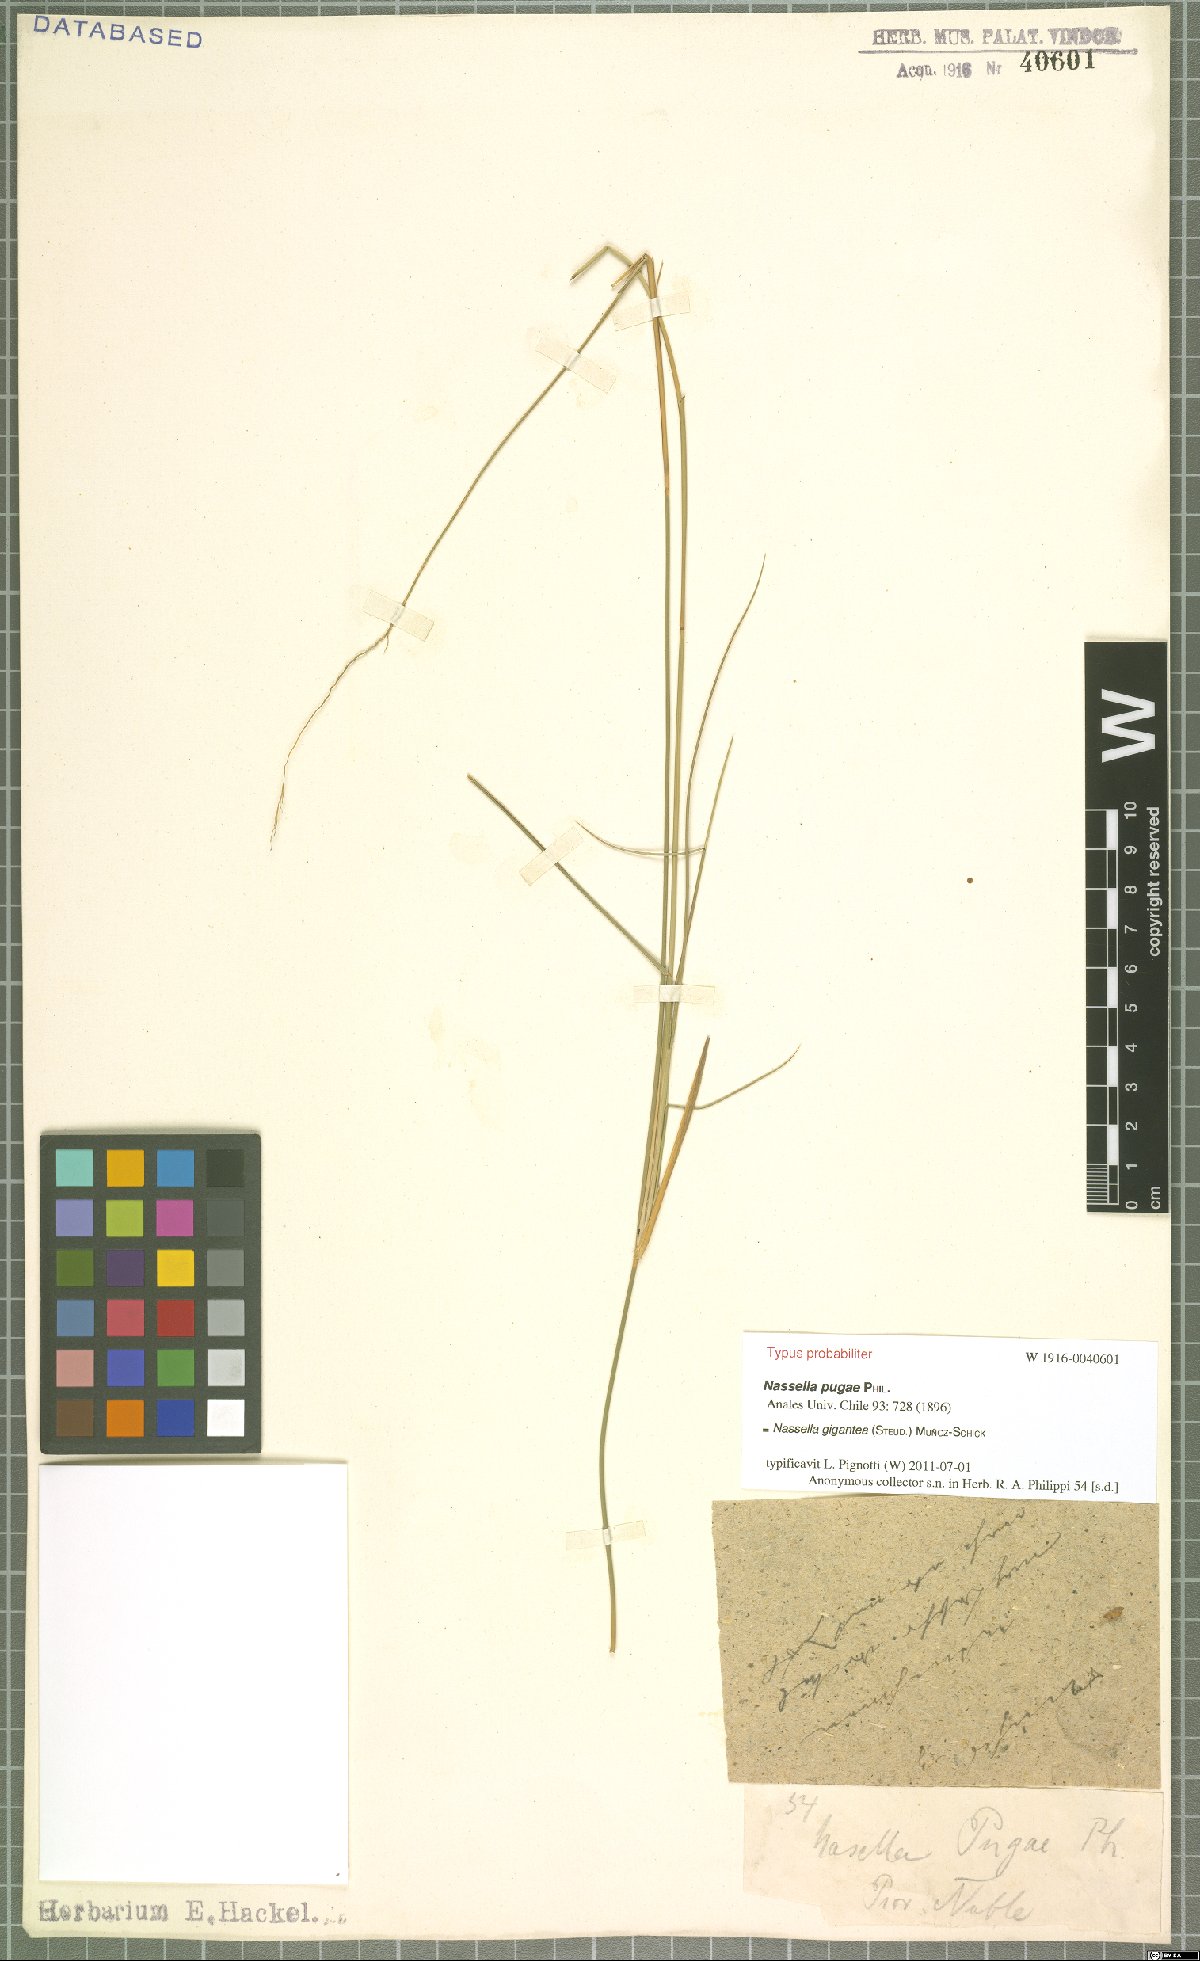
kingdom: Plantae
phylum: Tracheophyta
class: Liliopsida
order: Poales
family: Poaceae
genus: Nassella
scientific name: Nassella gigantea
